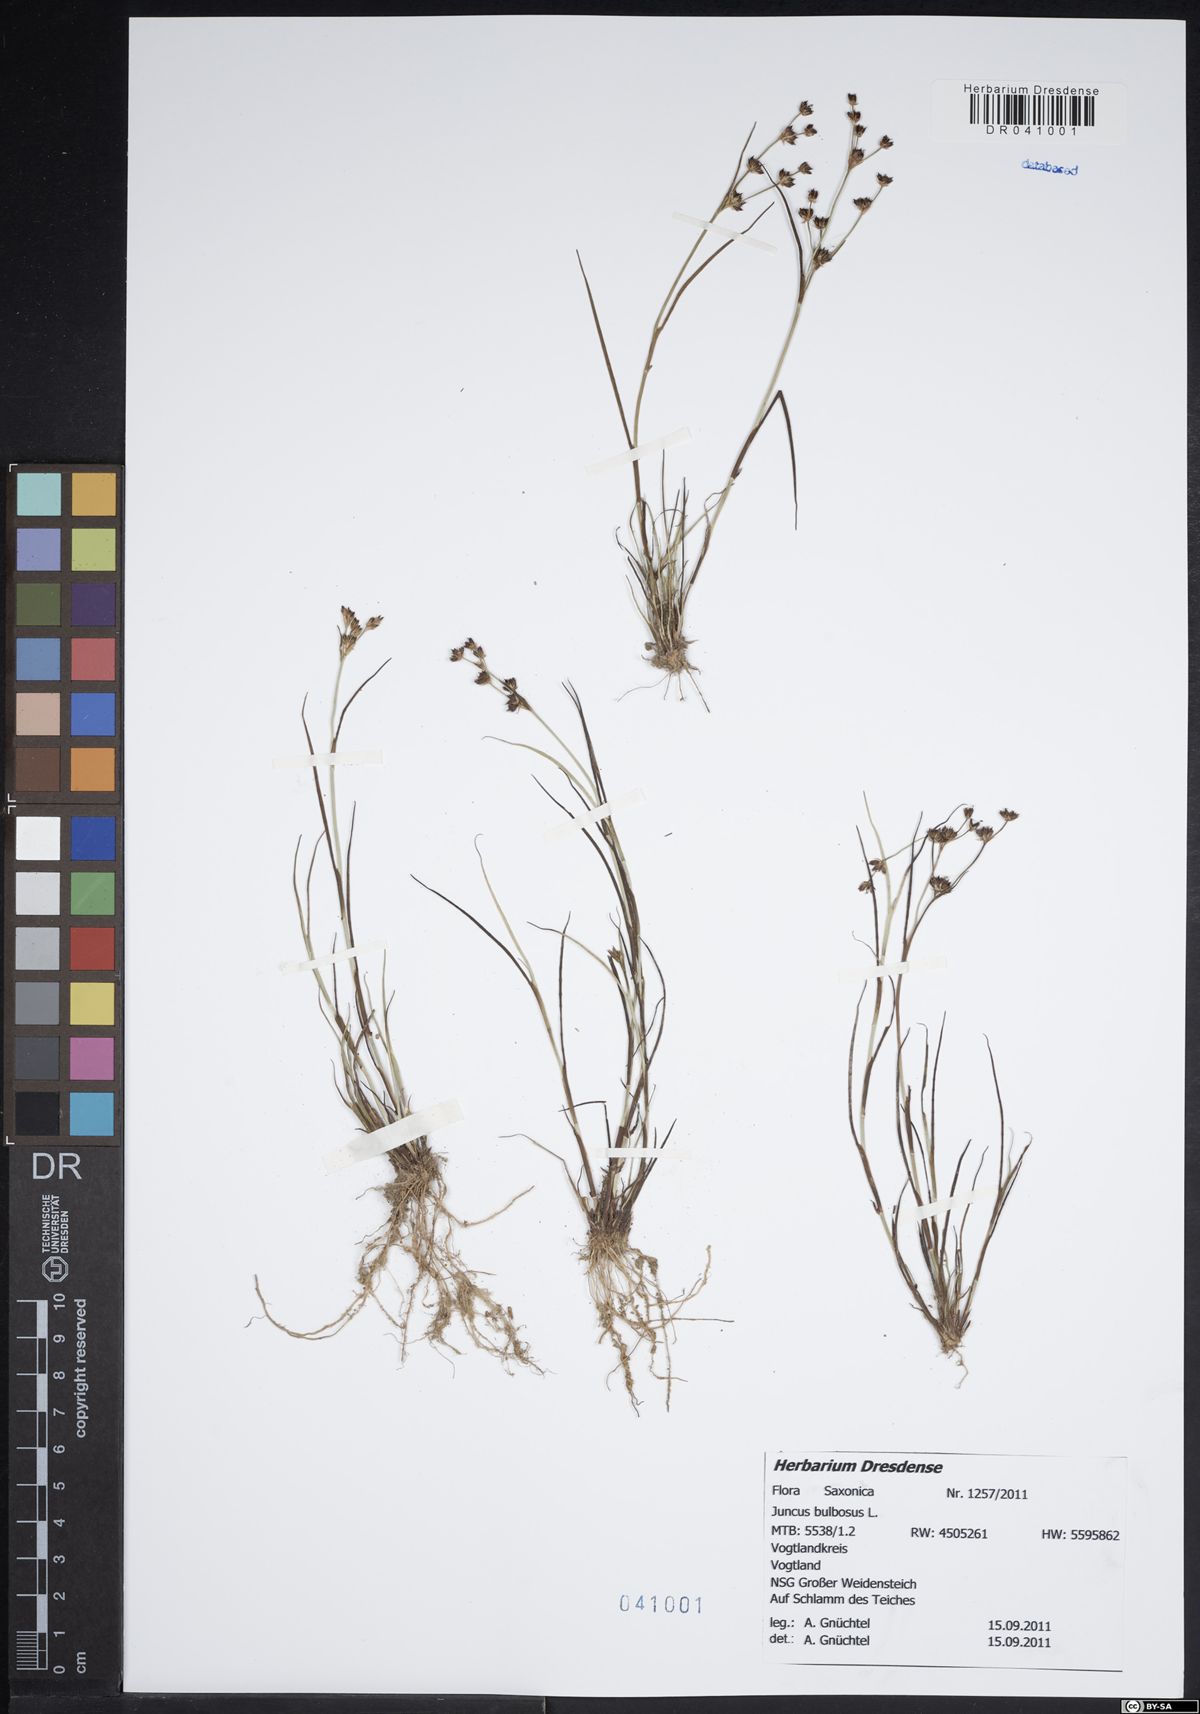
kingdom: Plantae
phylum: Tracheophyta
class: Liliopsida
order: Poales
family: Juncaceae
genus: Juncus
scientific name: Juncus bulbosus
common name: Bulbous rush
